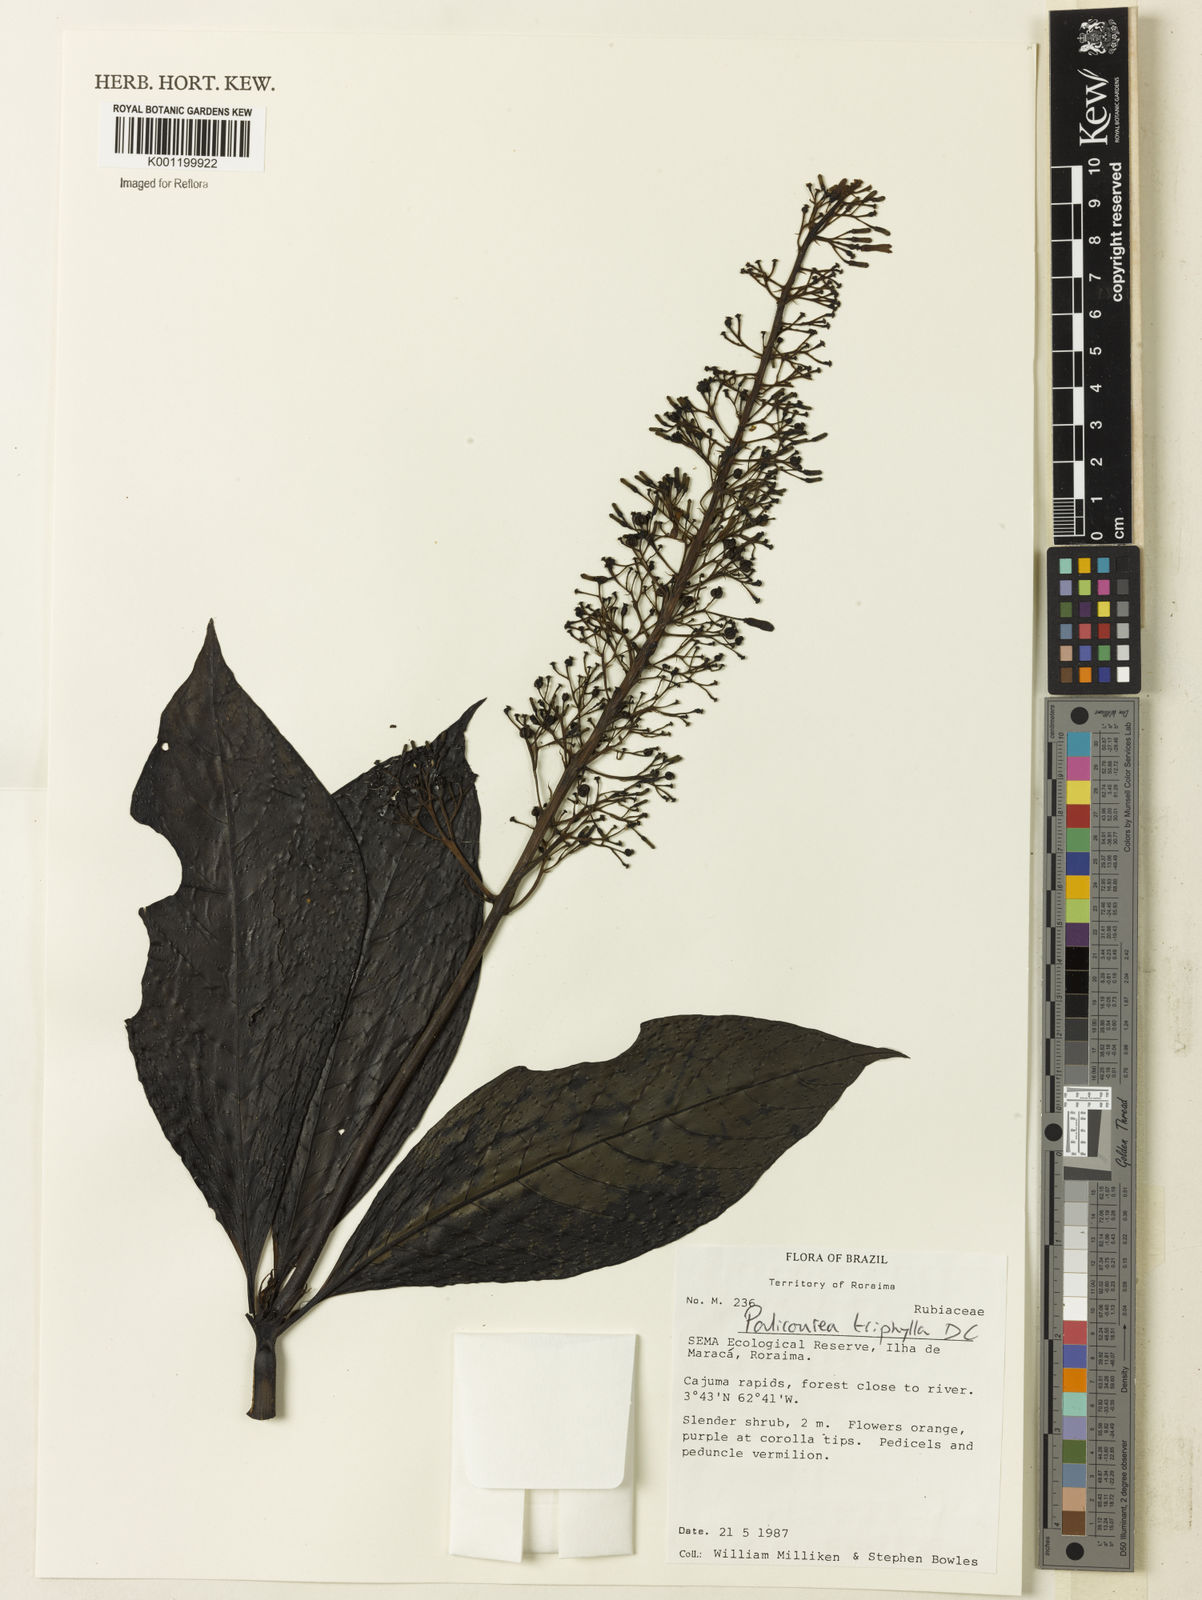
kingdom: Plantae
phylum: Tracheophyta
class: Magnoliopsida
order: Gentianales
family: Rubiaceae
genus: Palicourea
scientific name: Palicourea triphylla
